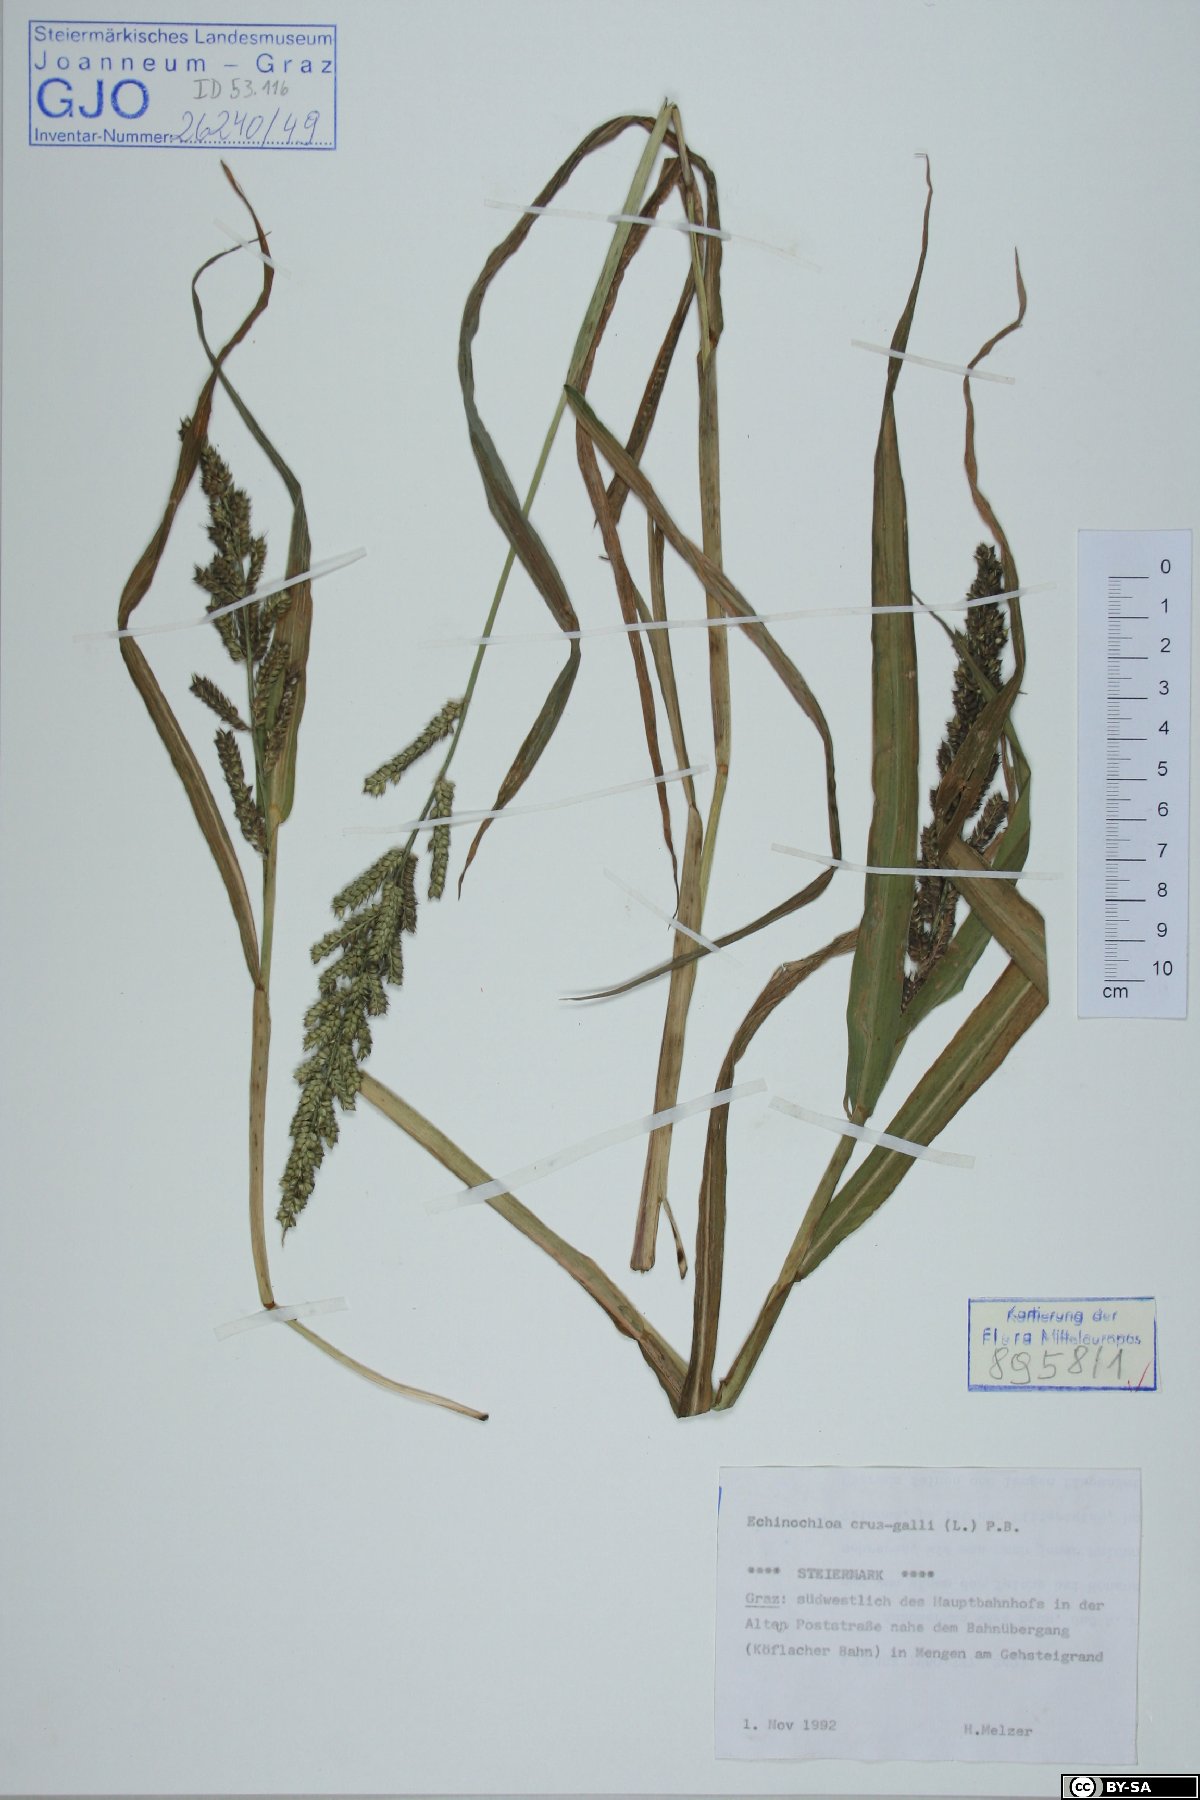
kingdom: Plantae
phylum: Tracheophyta
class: Liliopsida
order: Poales
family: Poaceae
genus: Echinochloa
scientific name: Echinochloa crus-galli
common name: Cockspur
